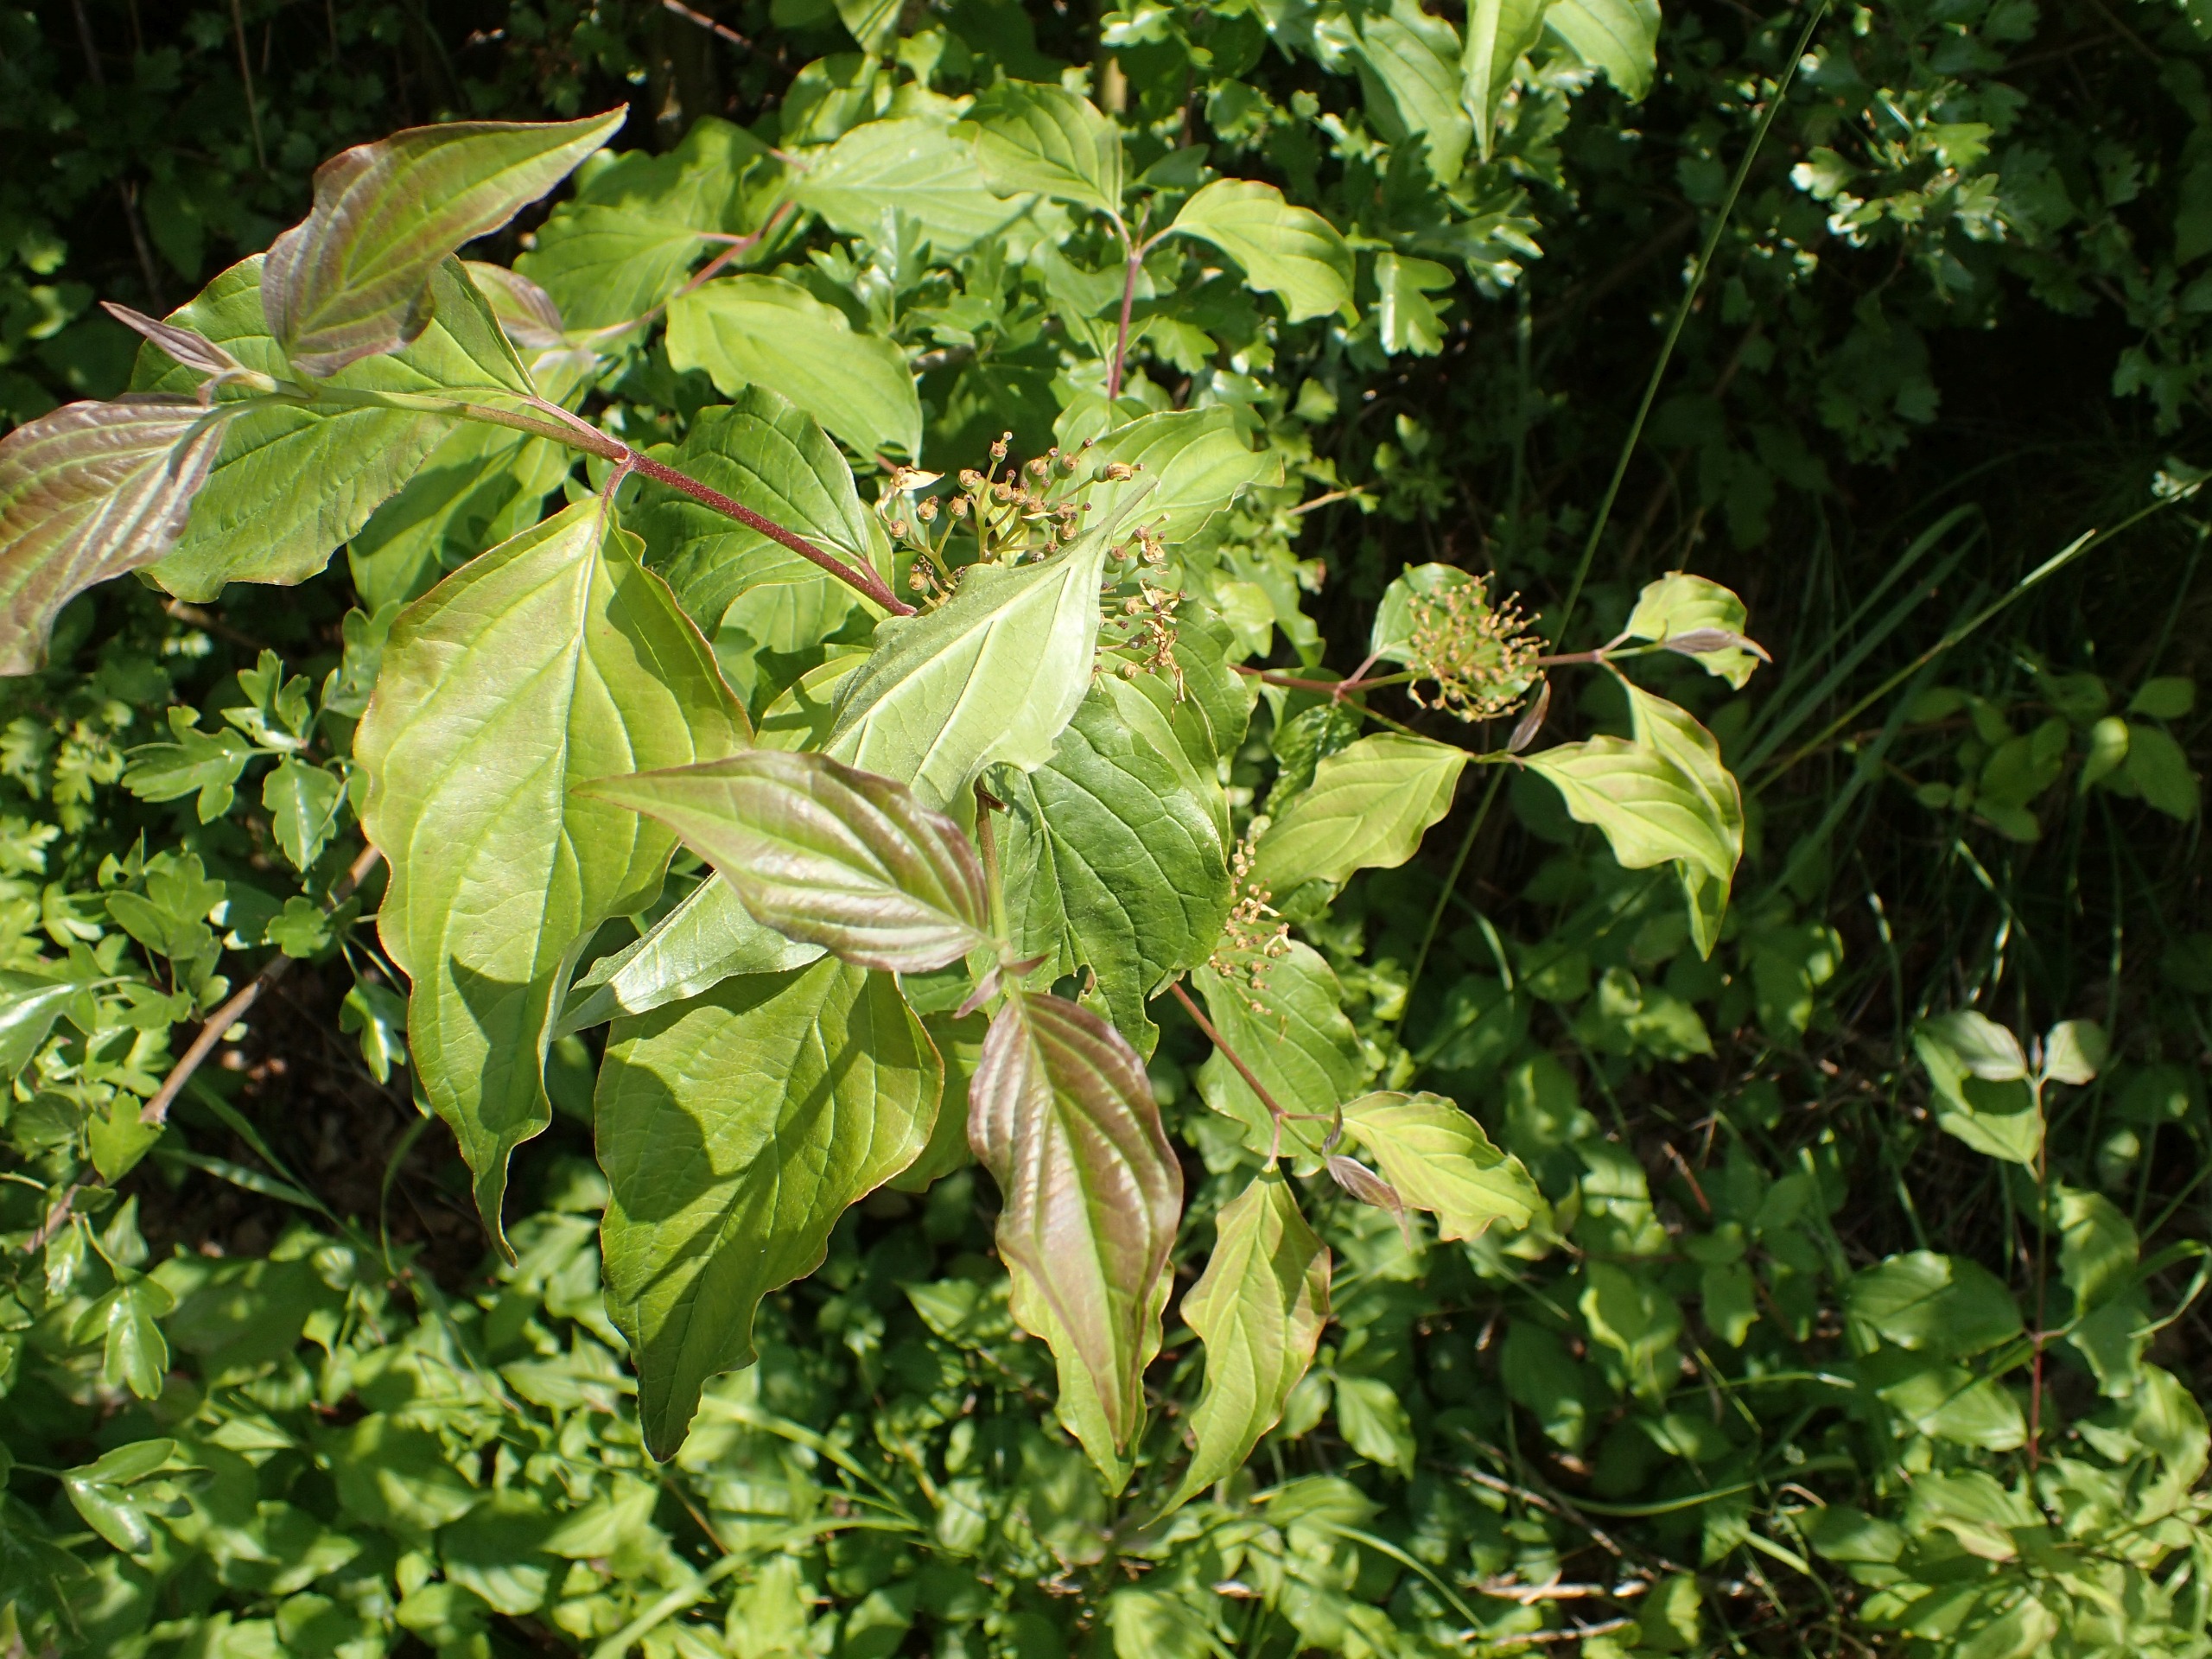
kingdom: Plantae
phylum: Tracheophyta
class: Magnoliopsida
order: Cornales
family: Cornaceae
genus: Cornus
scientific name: Cornus sanguinea
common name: Rød kornel
